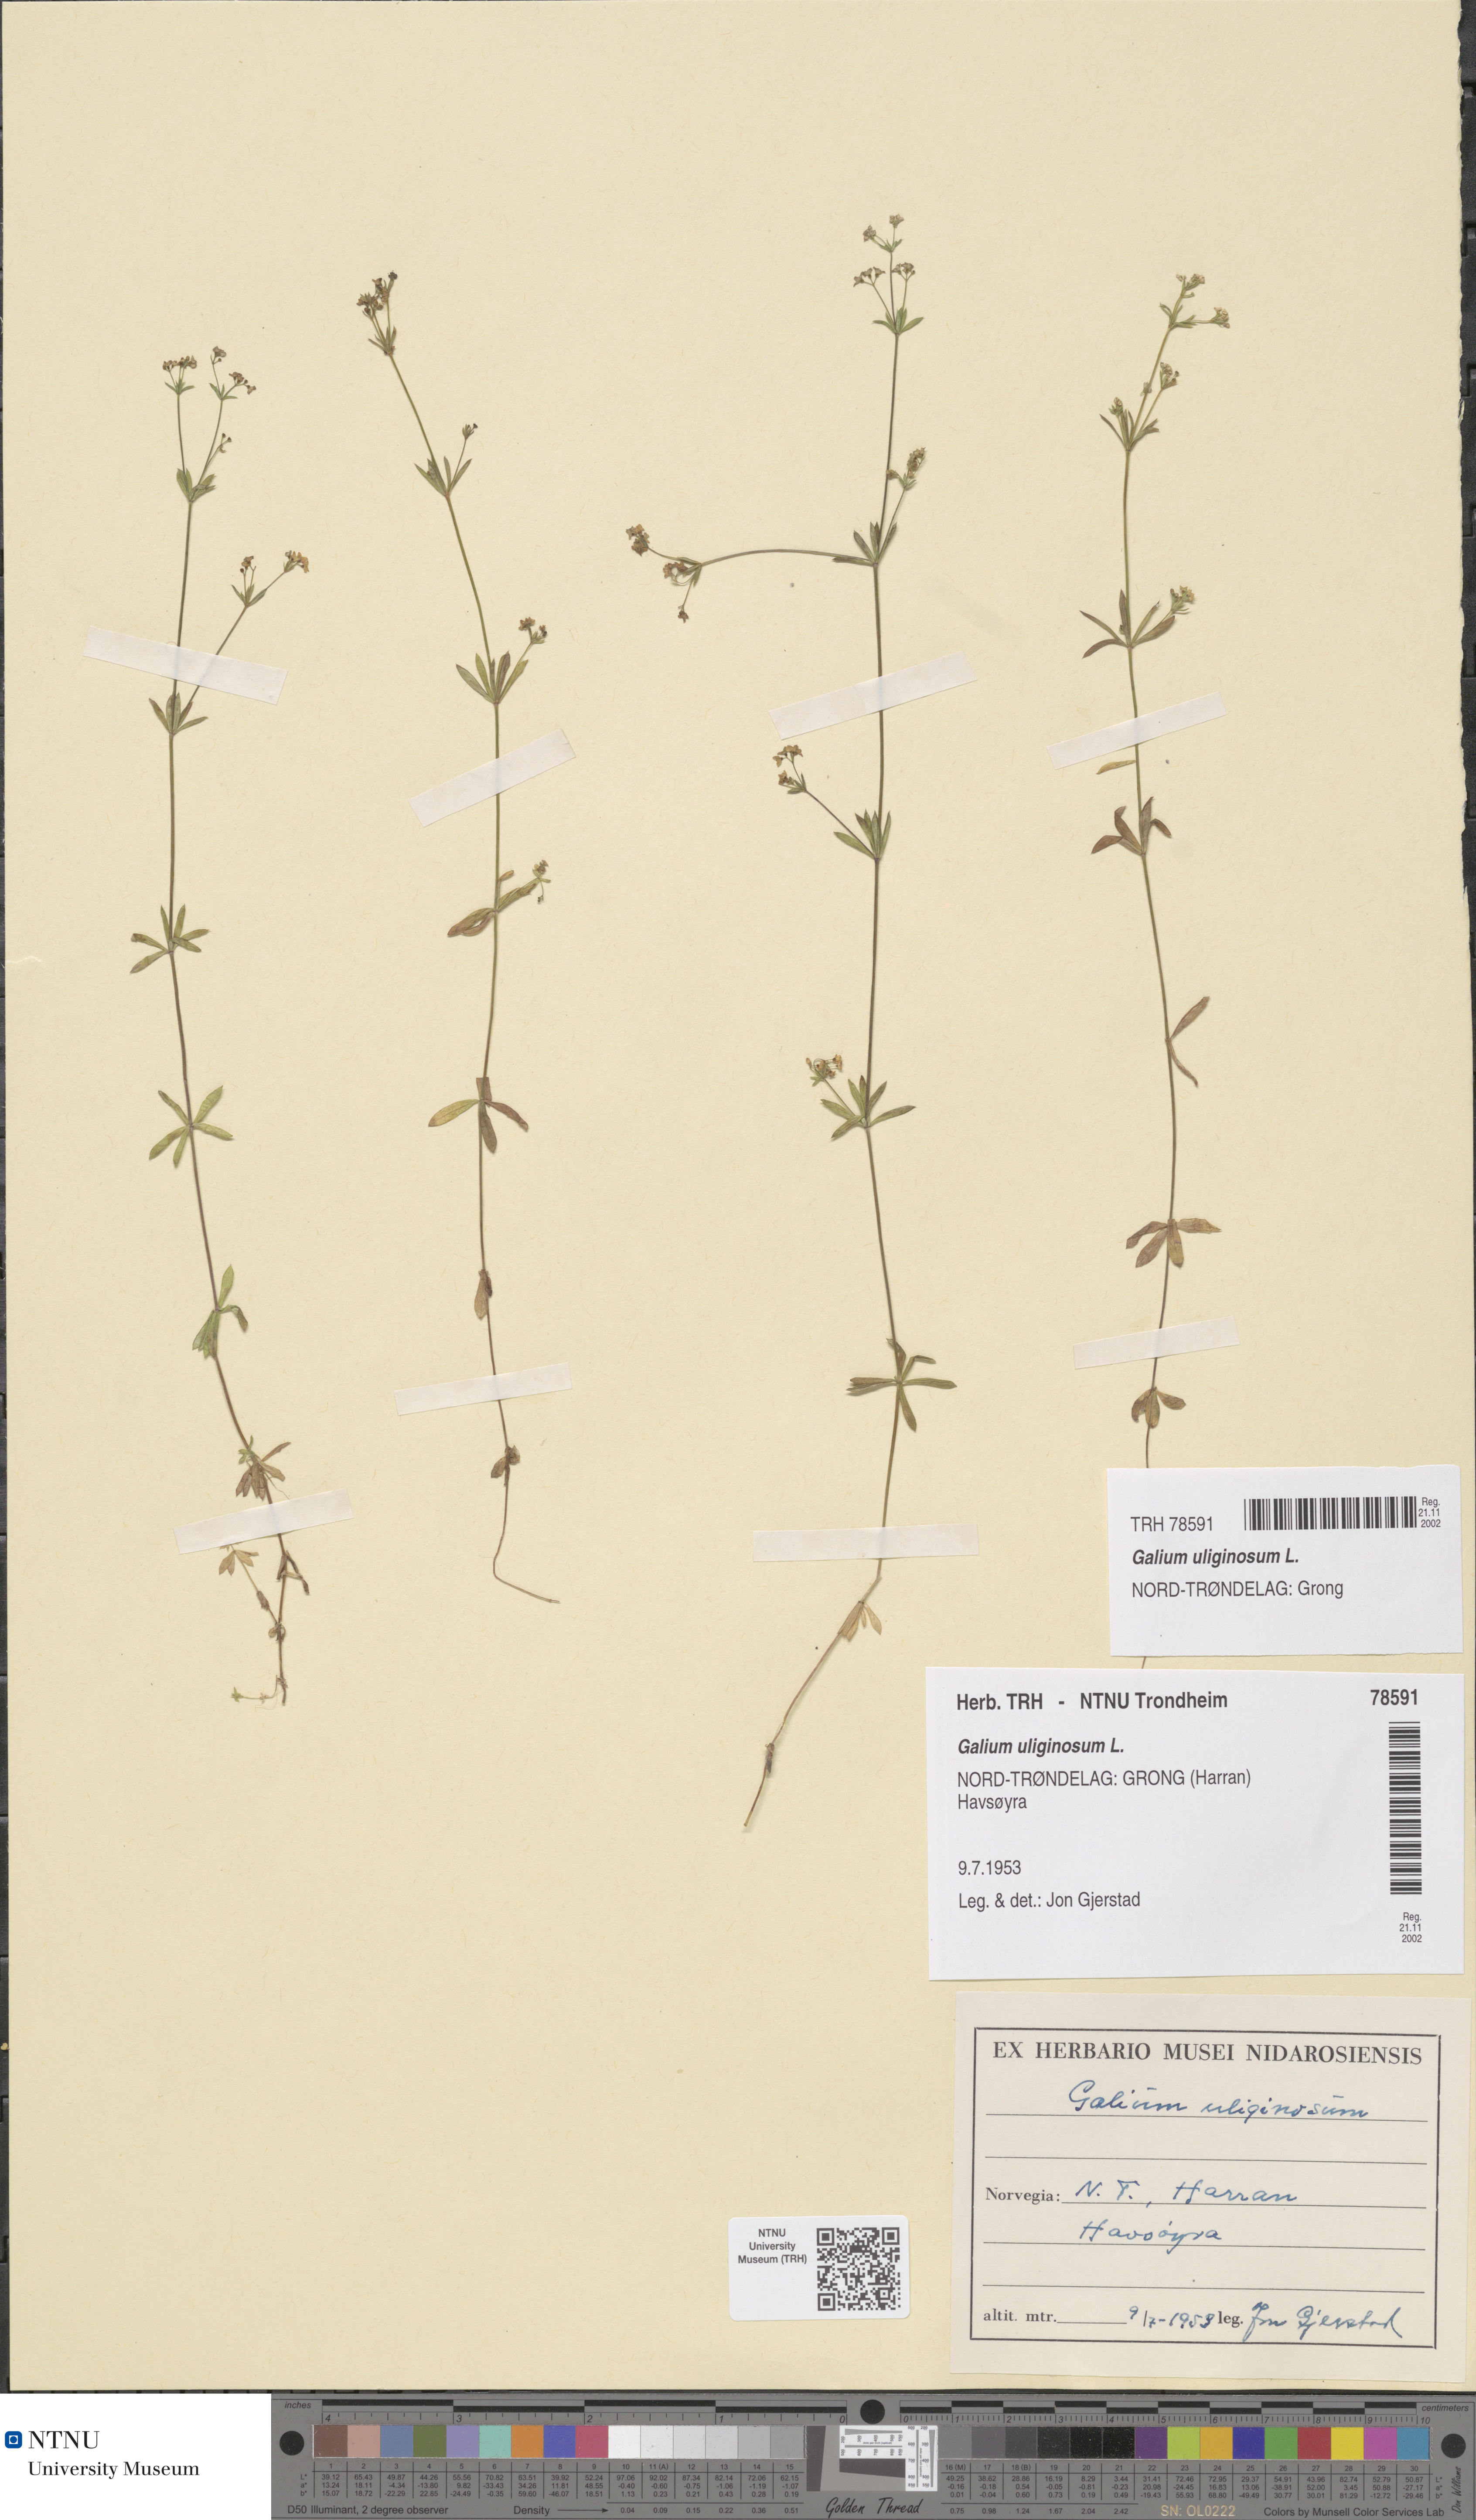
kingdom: Plantae
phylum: Tracheophyta
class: Magnoliopsida
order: Gentianales
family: Rubiaceae
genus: Galium
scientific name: Galium uliginosum
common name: Fen bedstraw
